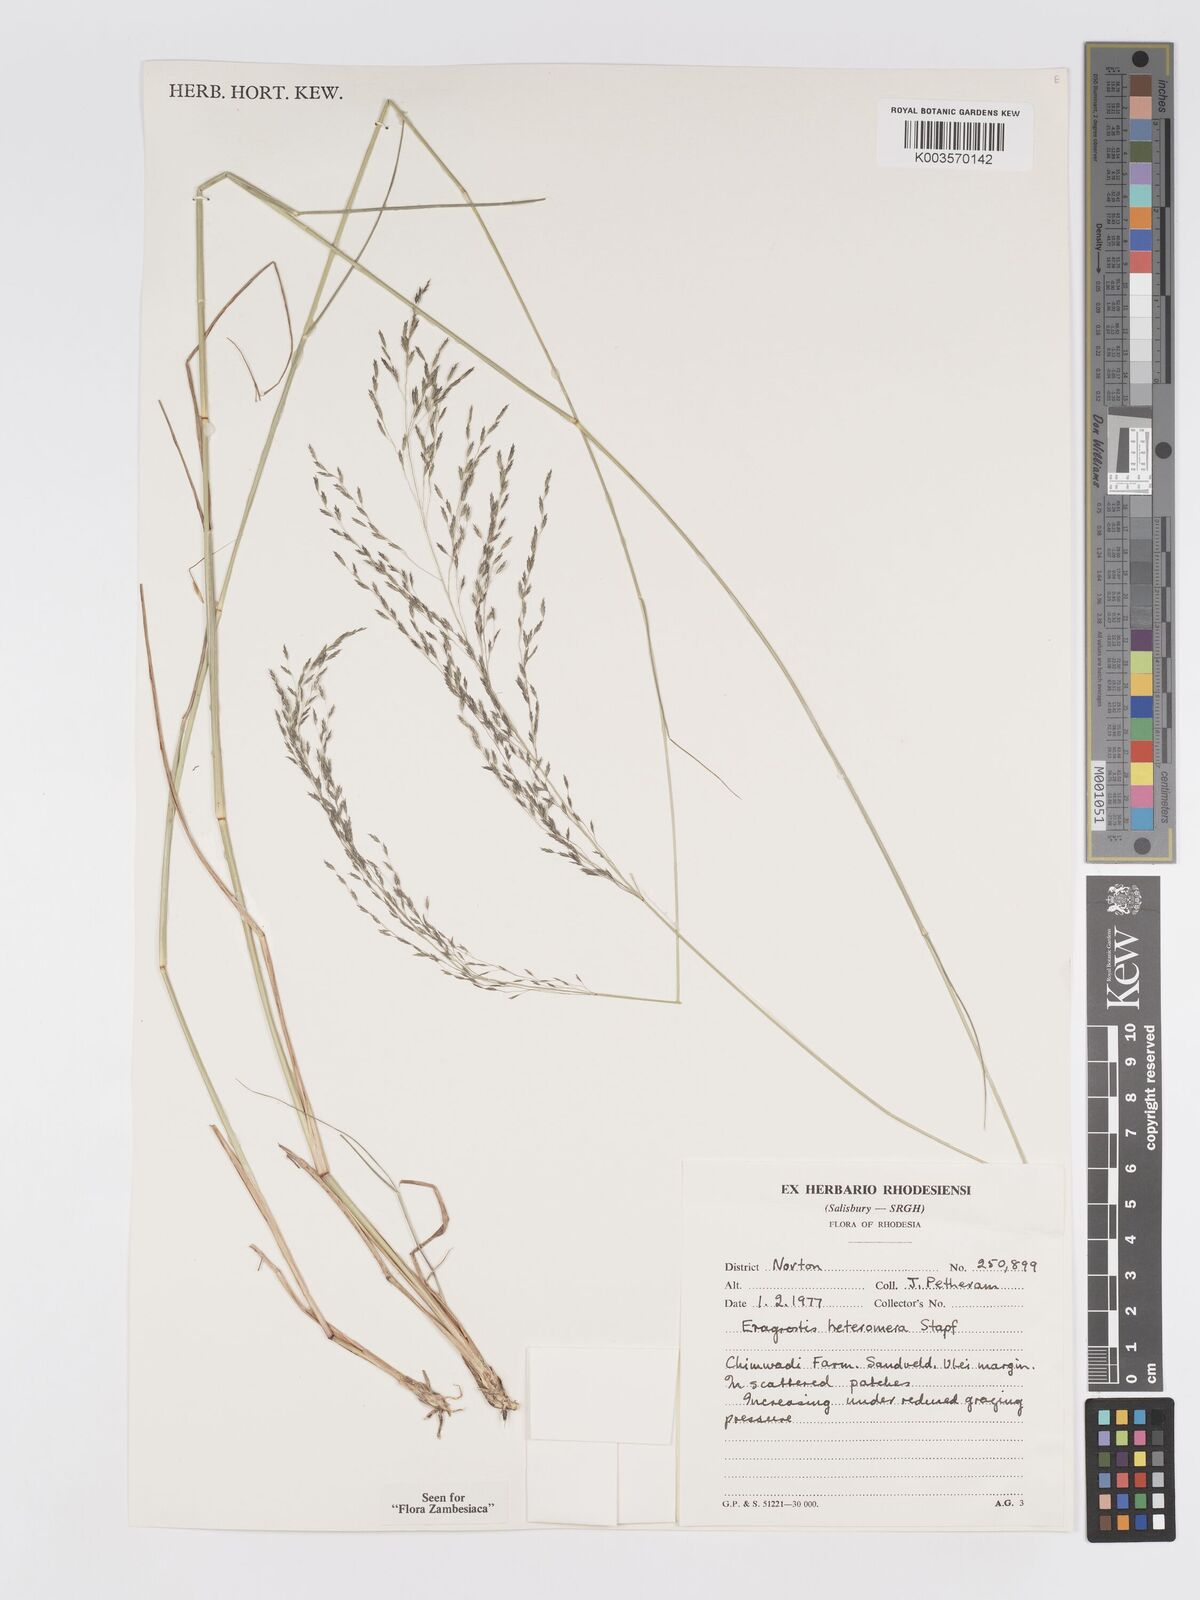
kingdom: Plantae
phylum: Tracheophyta
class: Liliopsida
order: Poales
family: Poaceae
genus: Eragrostis
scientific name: Eragrostis heteromera
